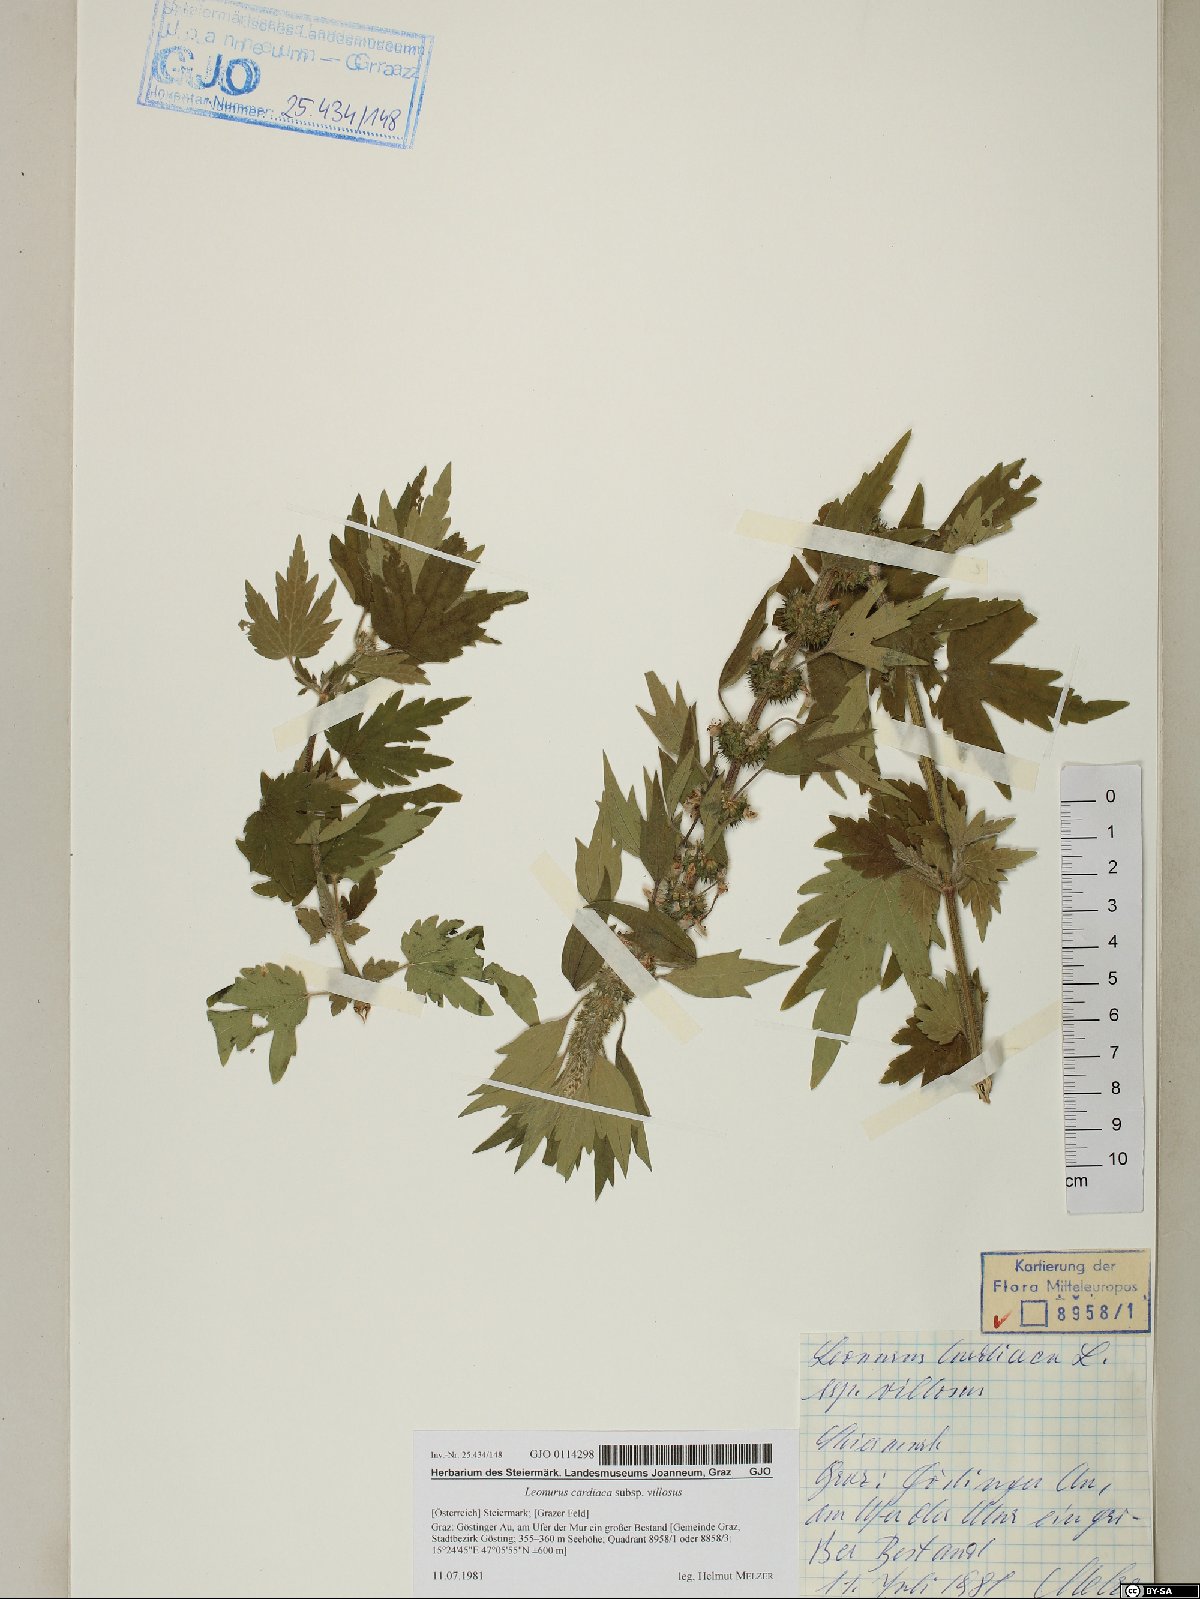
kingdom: Plantae
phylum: Tracheophyta
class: Magnoliopsida
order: Lamiales
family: Lamiaceae
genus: Leonurus
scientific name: Leonurus quinquelobatus
